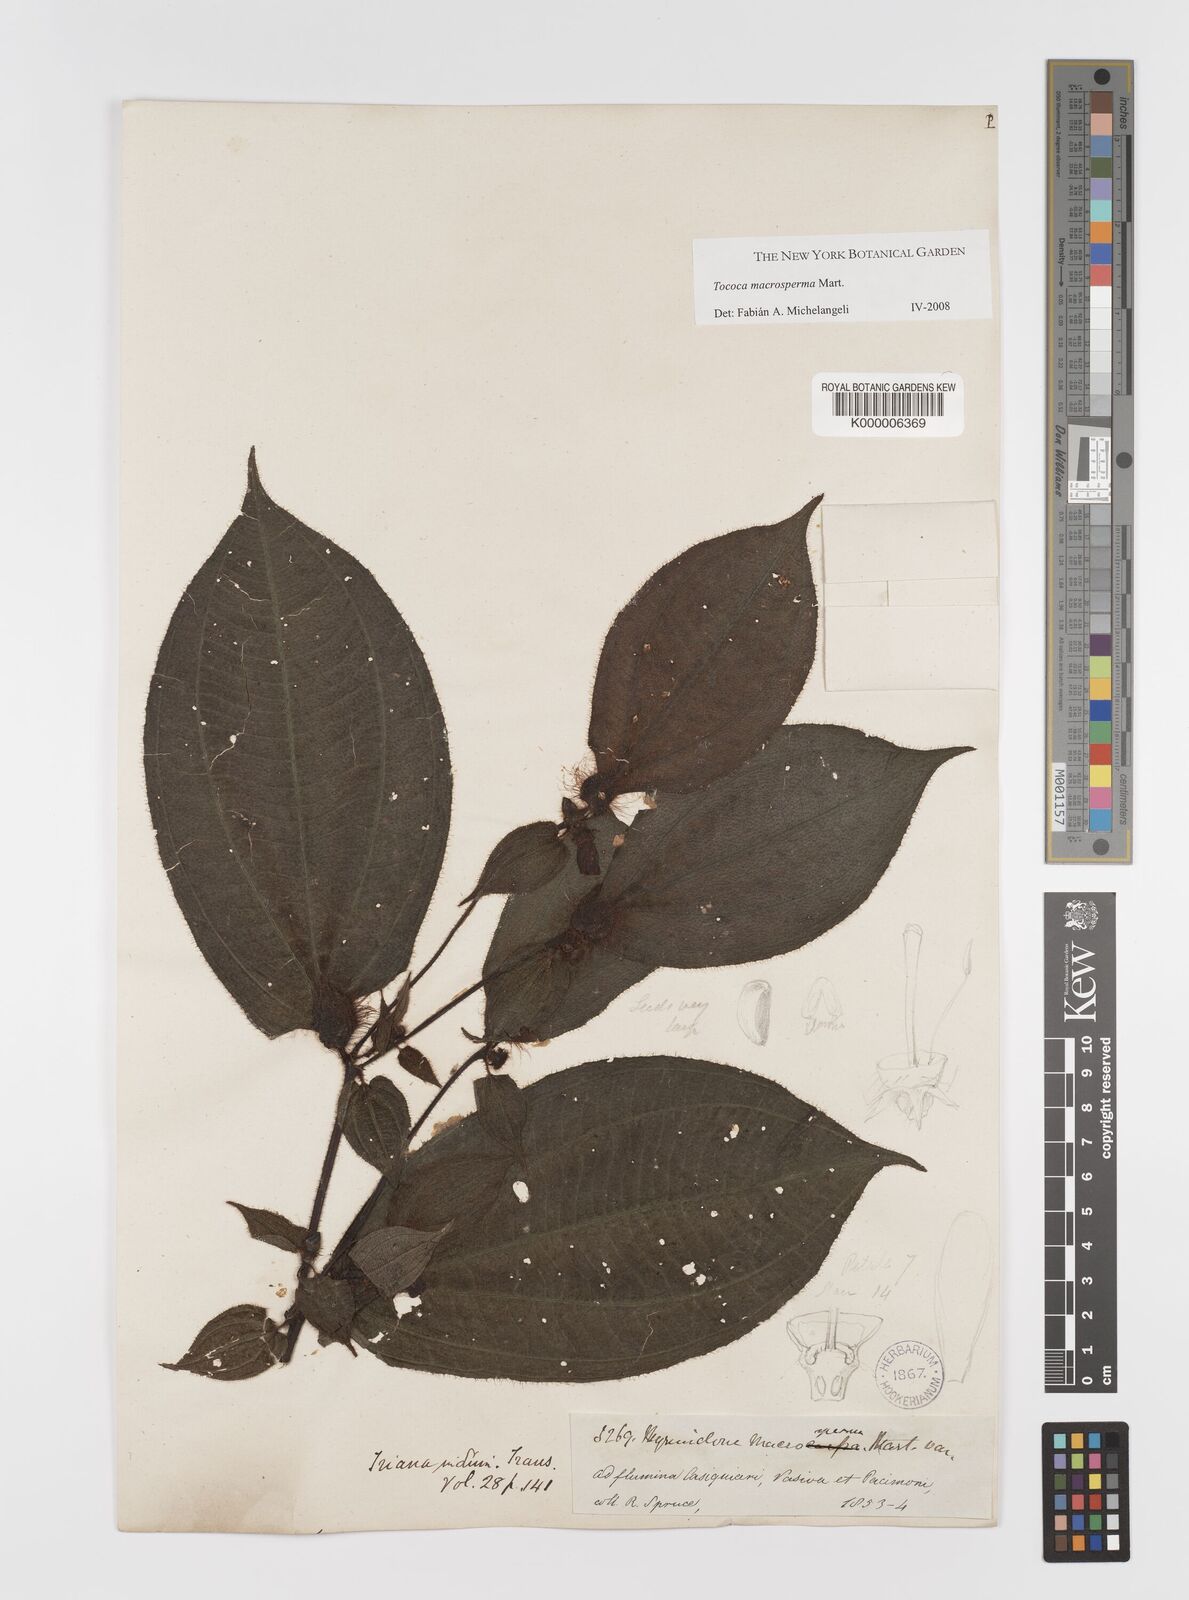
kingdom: Plantae
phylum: Tracheophyta
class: Magnoliopsida
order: Myrtales
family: Melastomataceae
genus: Myrmidone
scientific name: Myrmidone
